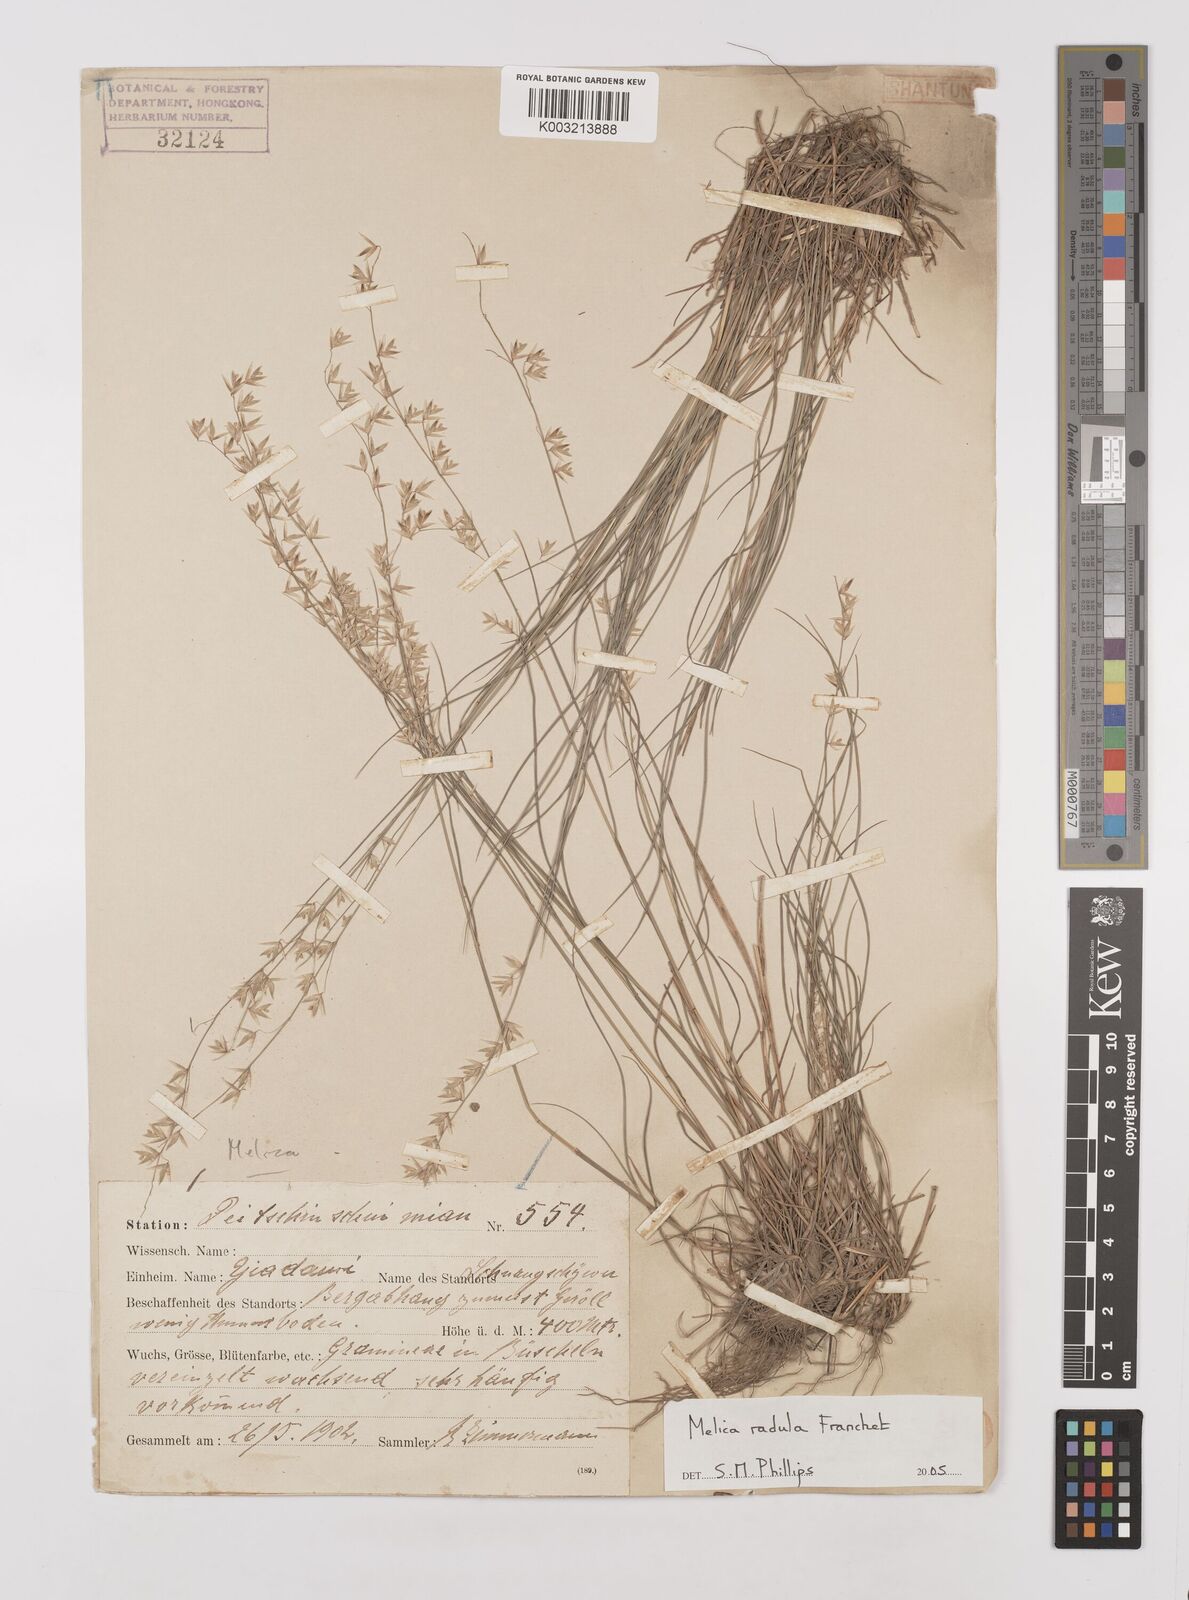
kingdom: Plantae
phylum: Tracheophyta
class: Liliopsida
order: Poales
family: Poaceae
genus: Melica
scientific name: Melica radula
